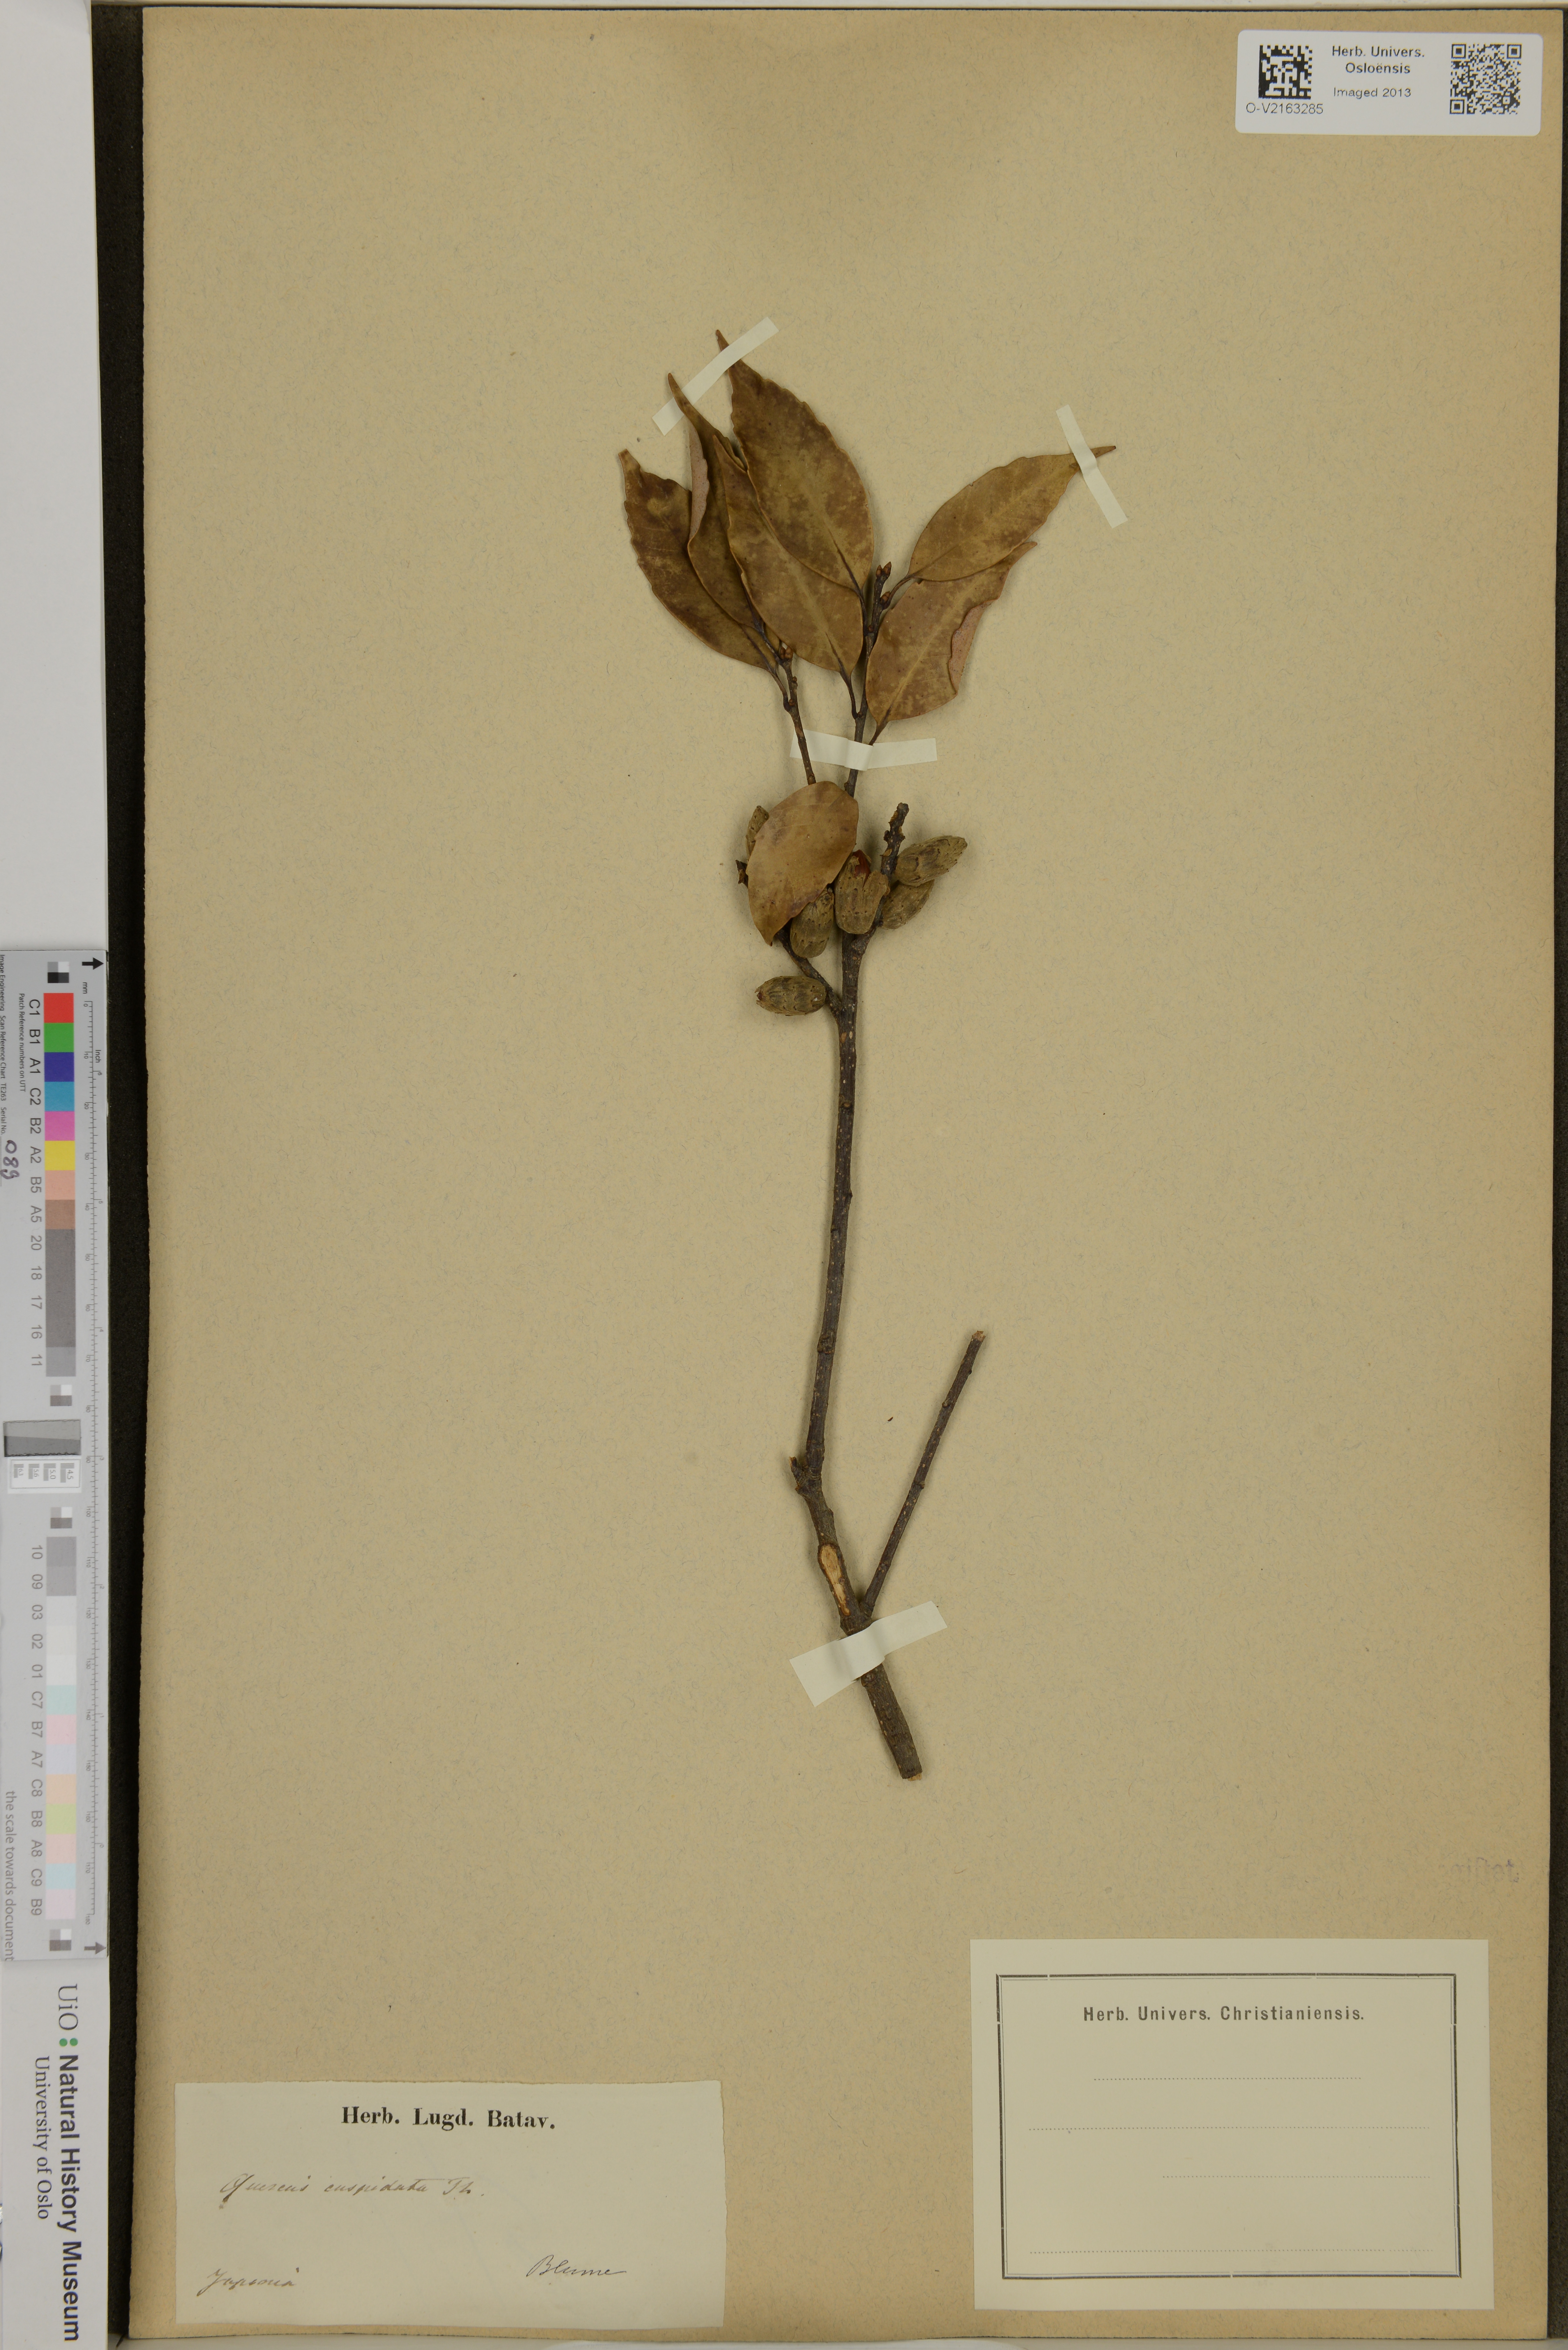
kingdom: Plantae
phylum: Tracheophyta
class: Magnoliopsida
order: Fagales
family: Fagaceae
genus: Castanopsis
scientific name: Castanopsis cuspidata
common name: Japanese chinquapin
